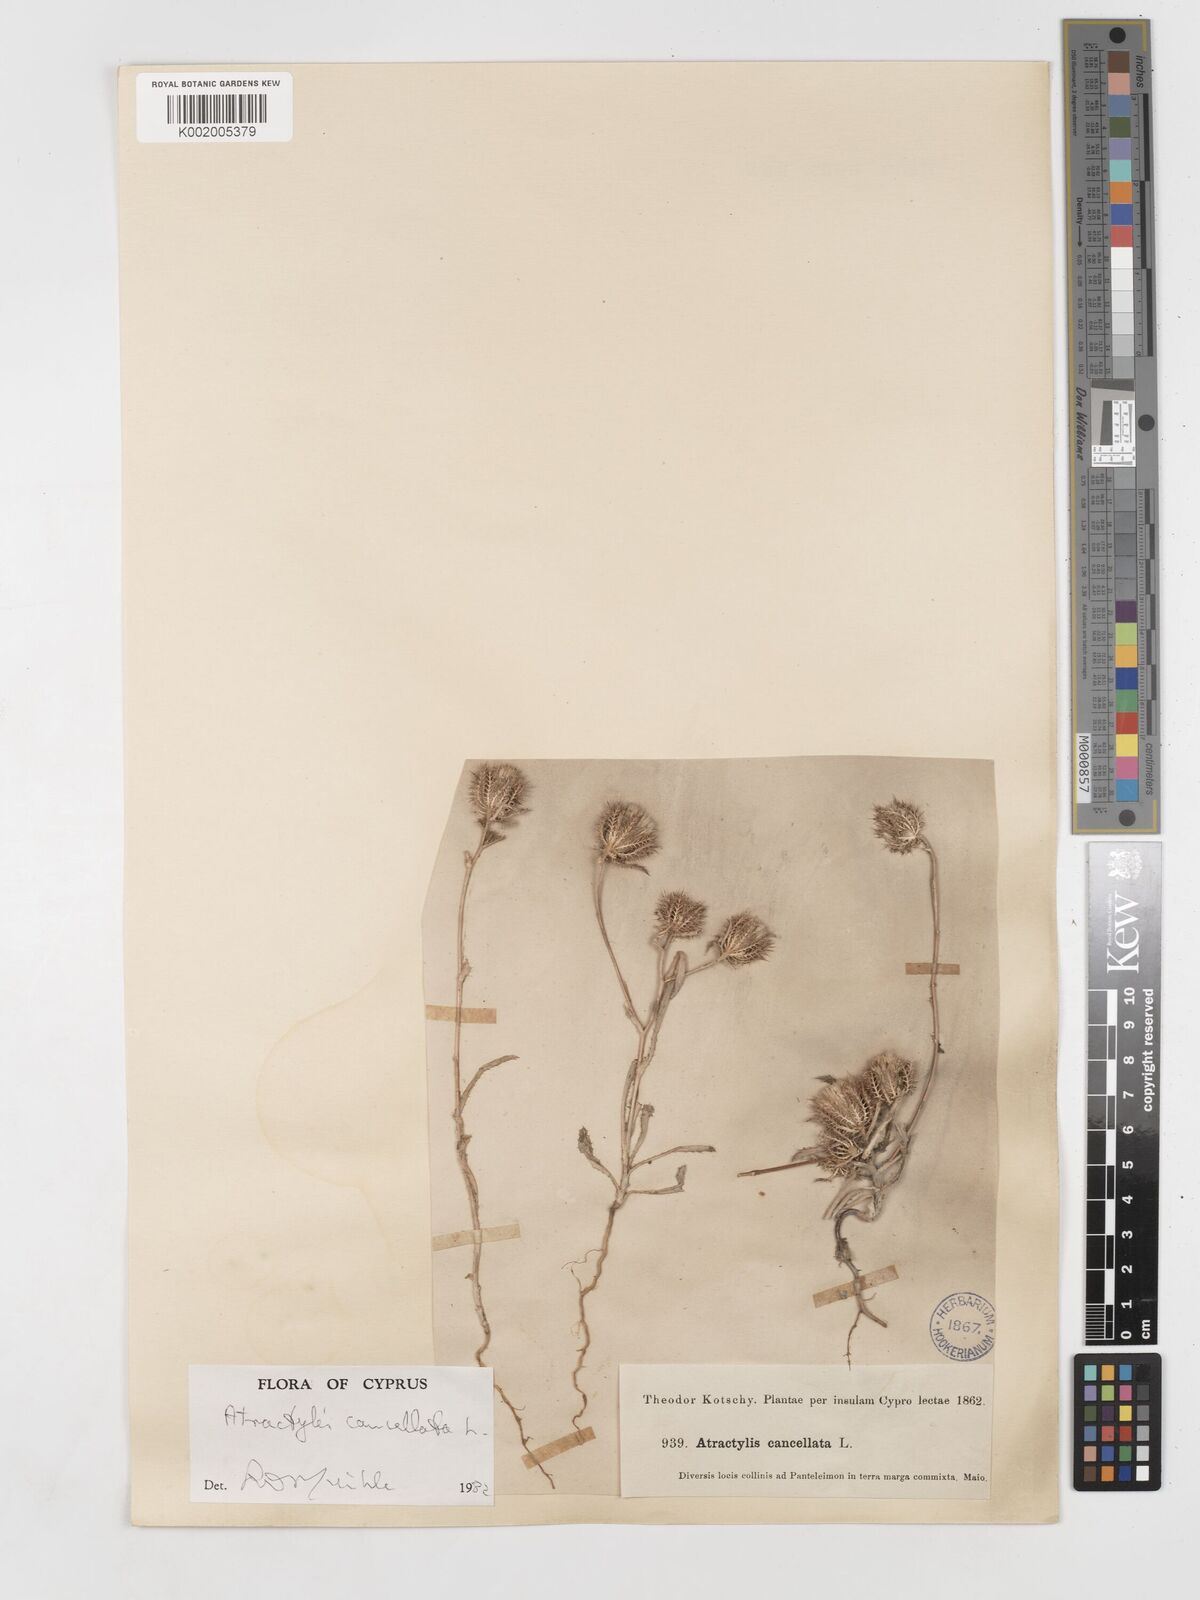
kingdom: Plantae
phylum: Tracheophyta
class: Magnoliopsida
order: Asterales
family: Asteraceae
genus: Atractylis
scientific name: Atractylis cancellata
